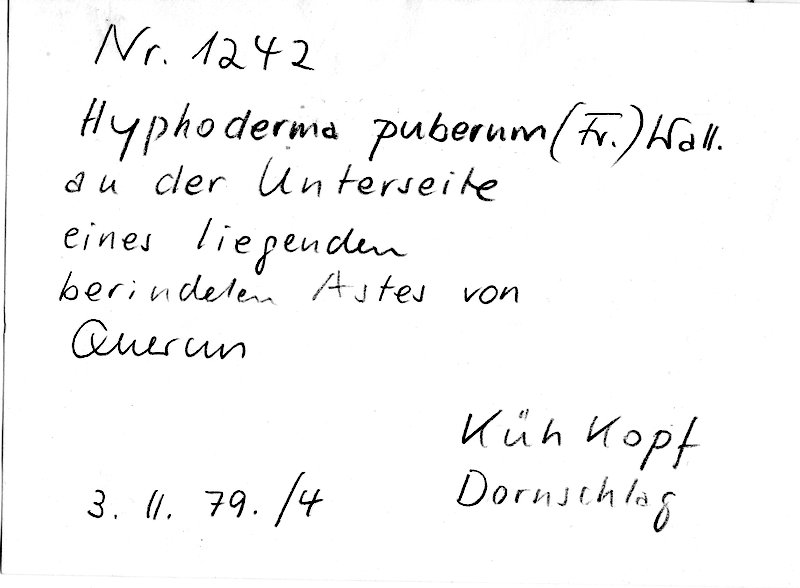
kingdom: Plantae
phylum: Tracheophyta
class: Magnoliopsida
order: Fagales
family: Fagaceae
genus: Quercus
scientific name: Quercus
